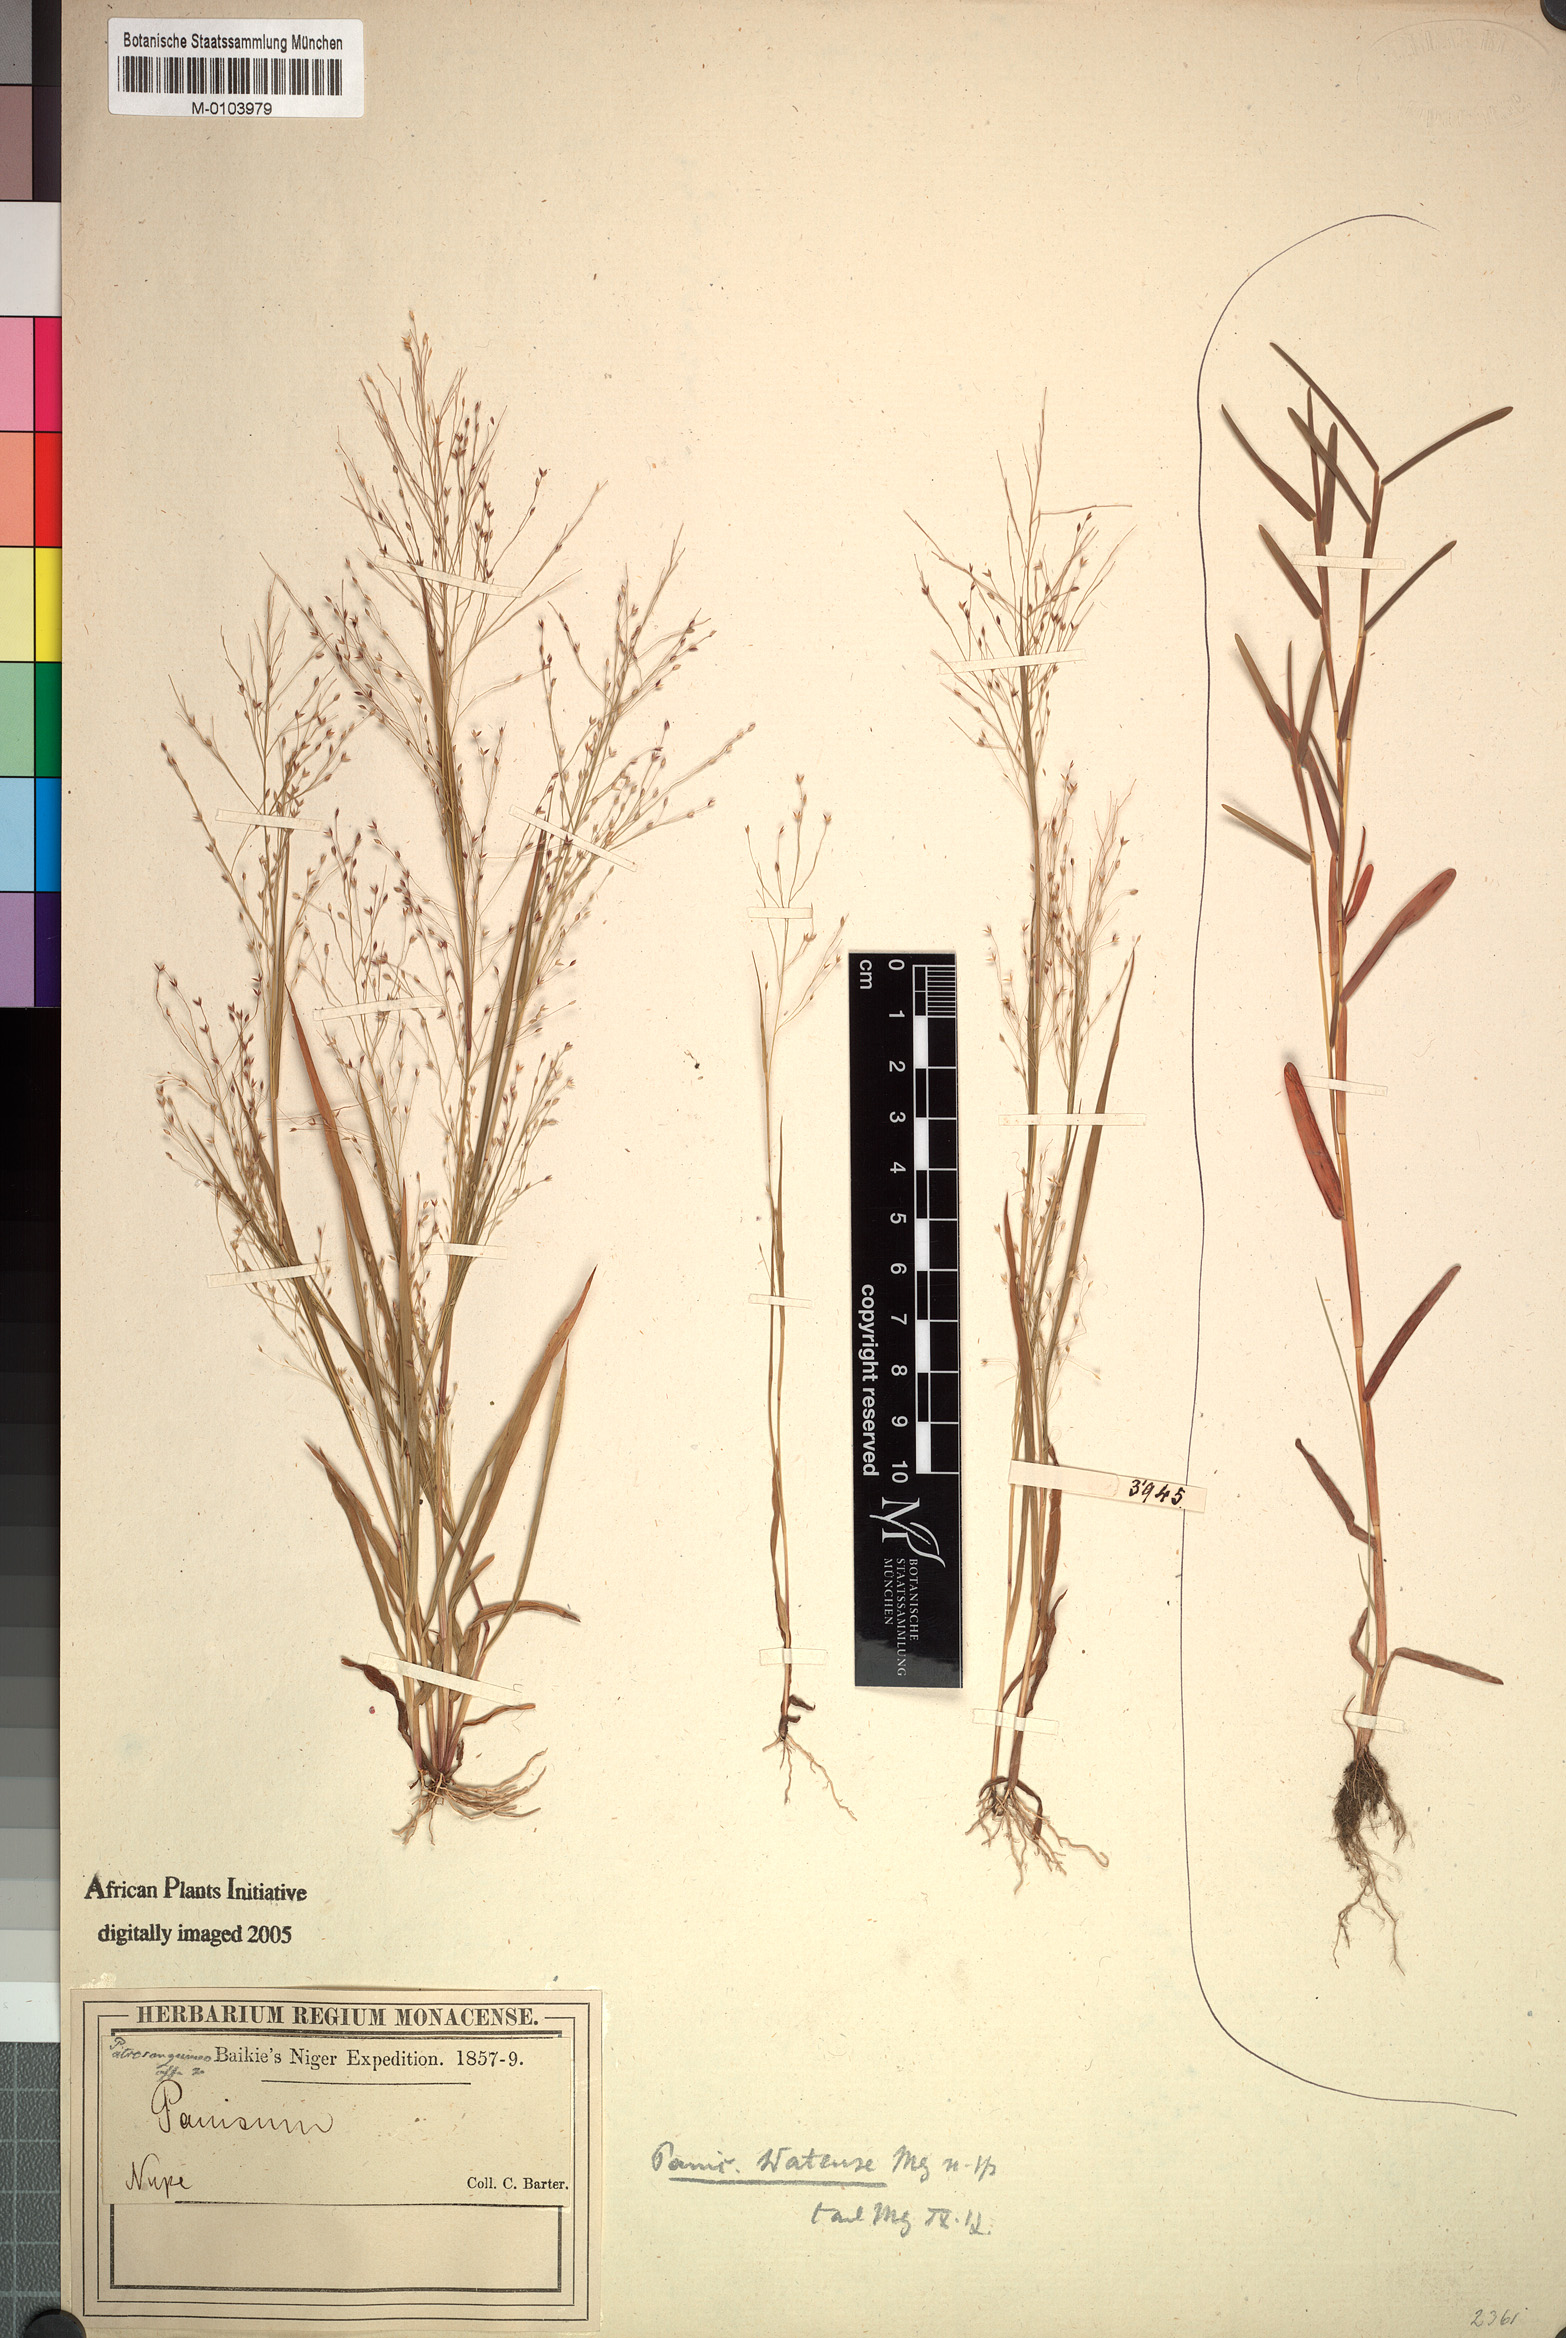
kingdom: Plantae
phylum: Tracheophyta
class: Liliopsida
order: Poales
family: Poaceae
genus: Panicum
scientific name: Panicum humile
